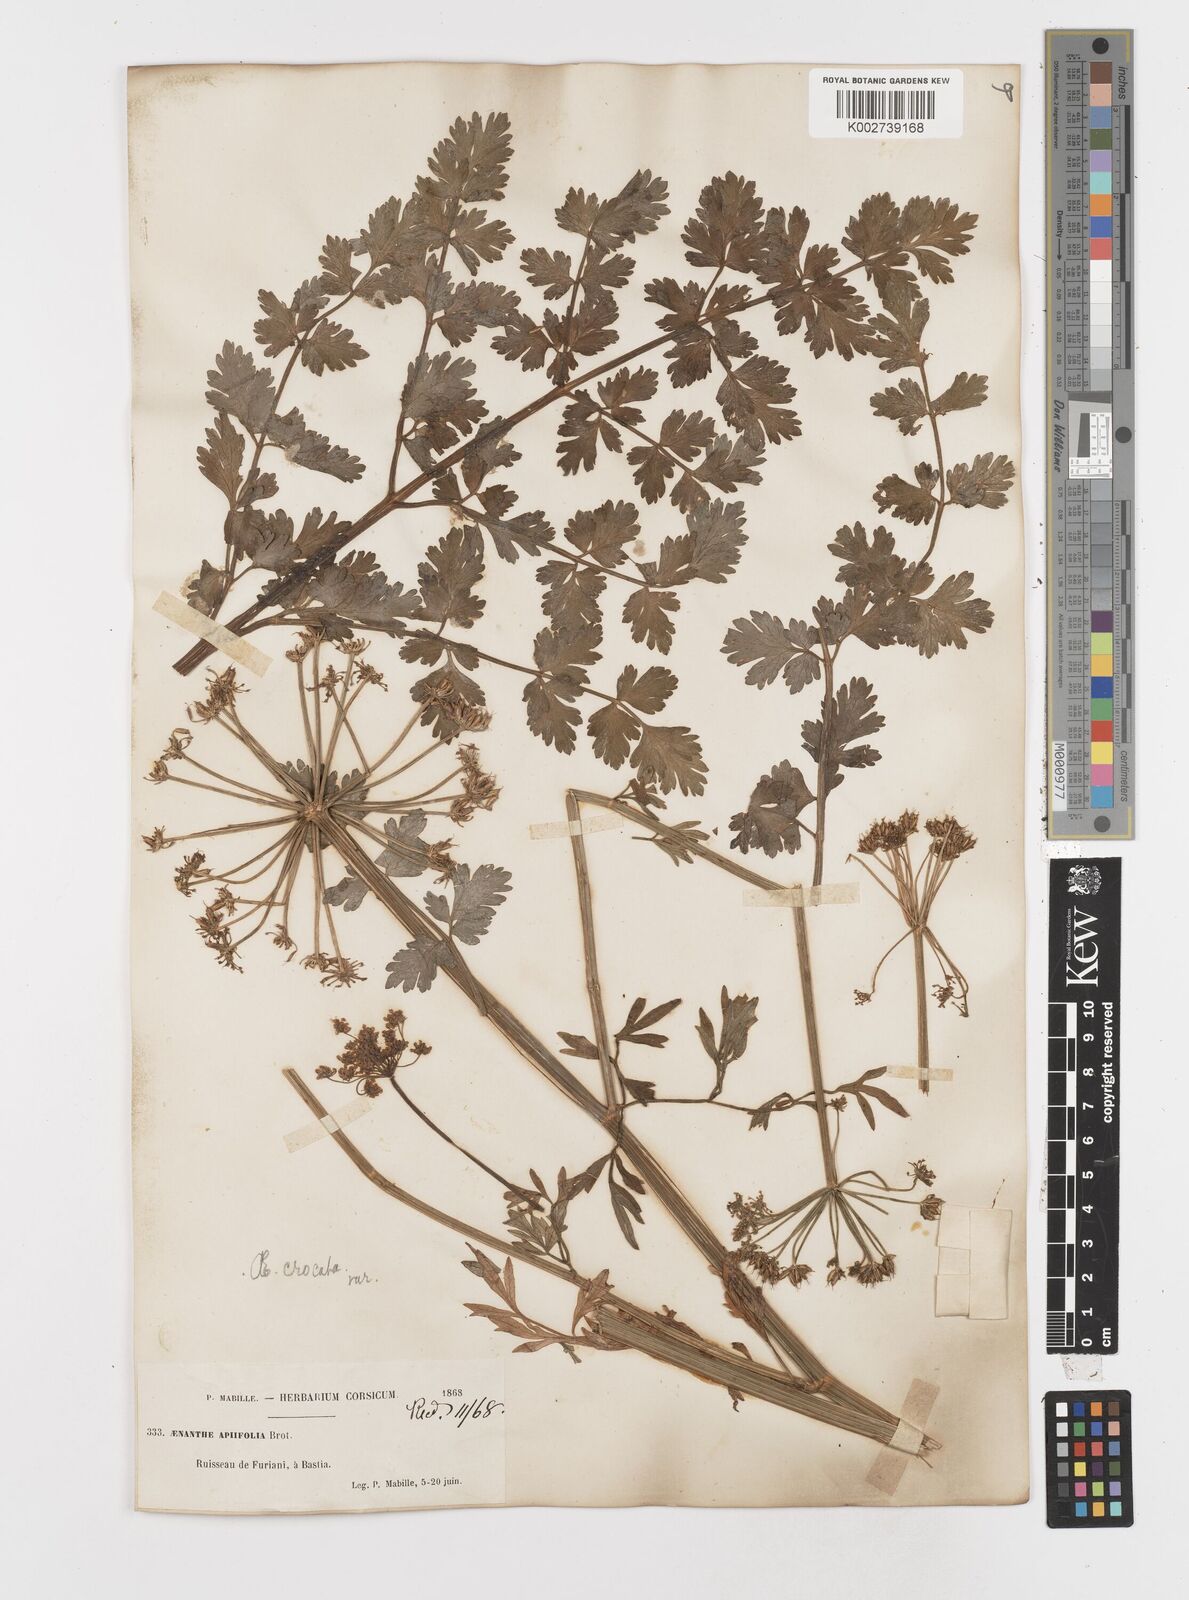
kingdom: Plantae
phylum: Tracheophyta
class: Magnoliopsida
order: Apiales
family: Apiaceae
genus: Oenanthe
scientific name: Oenanthe crocata
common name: Hemlock water-dropwort
